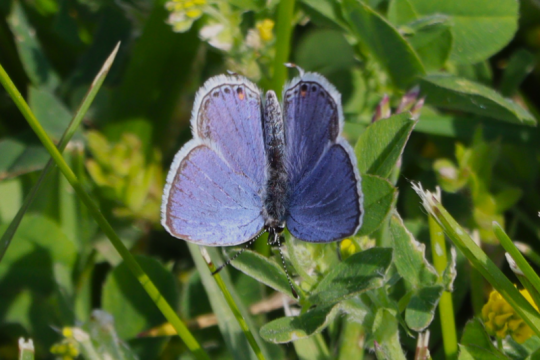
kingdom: Animalia
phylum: Arthropoda
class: Insecta
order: Lepidoptera
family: Lycaenidae
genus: Elkalyce
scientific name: Elkalyce comyntas
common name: Eastern Tailed-Blue
